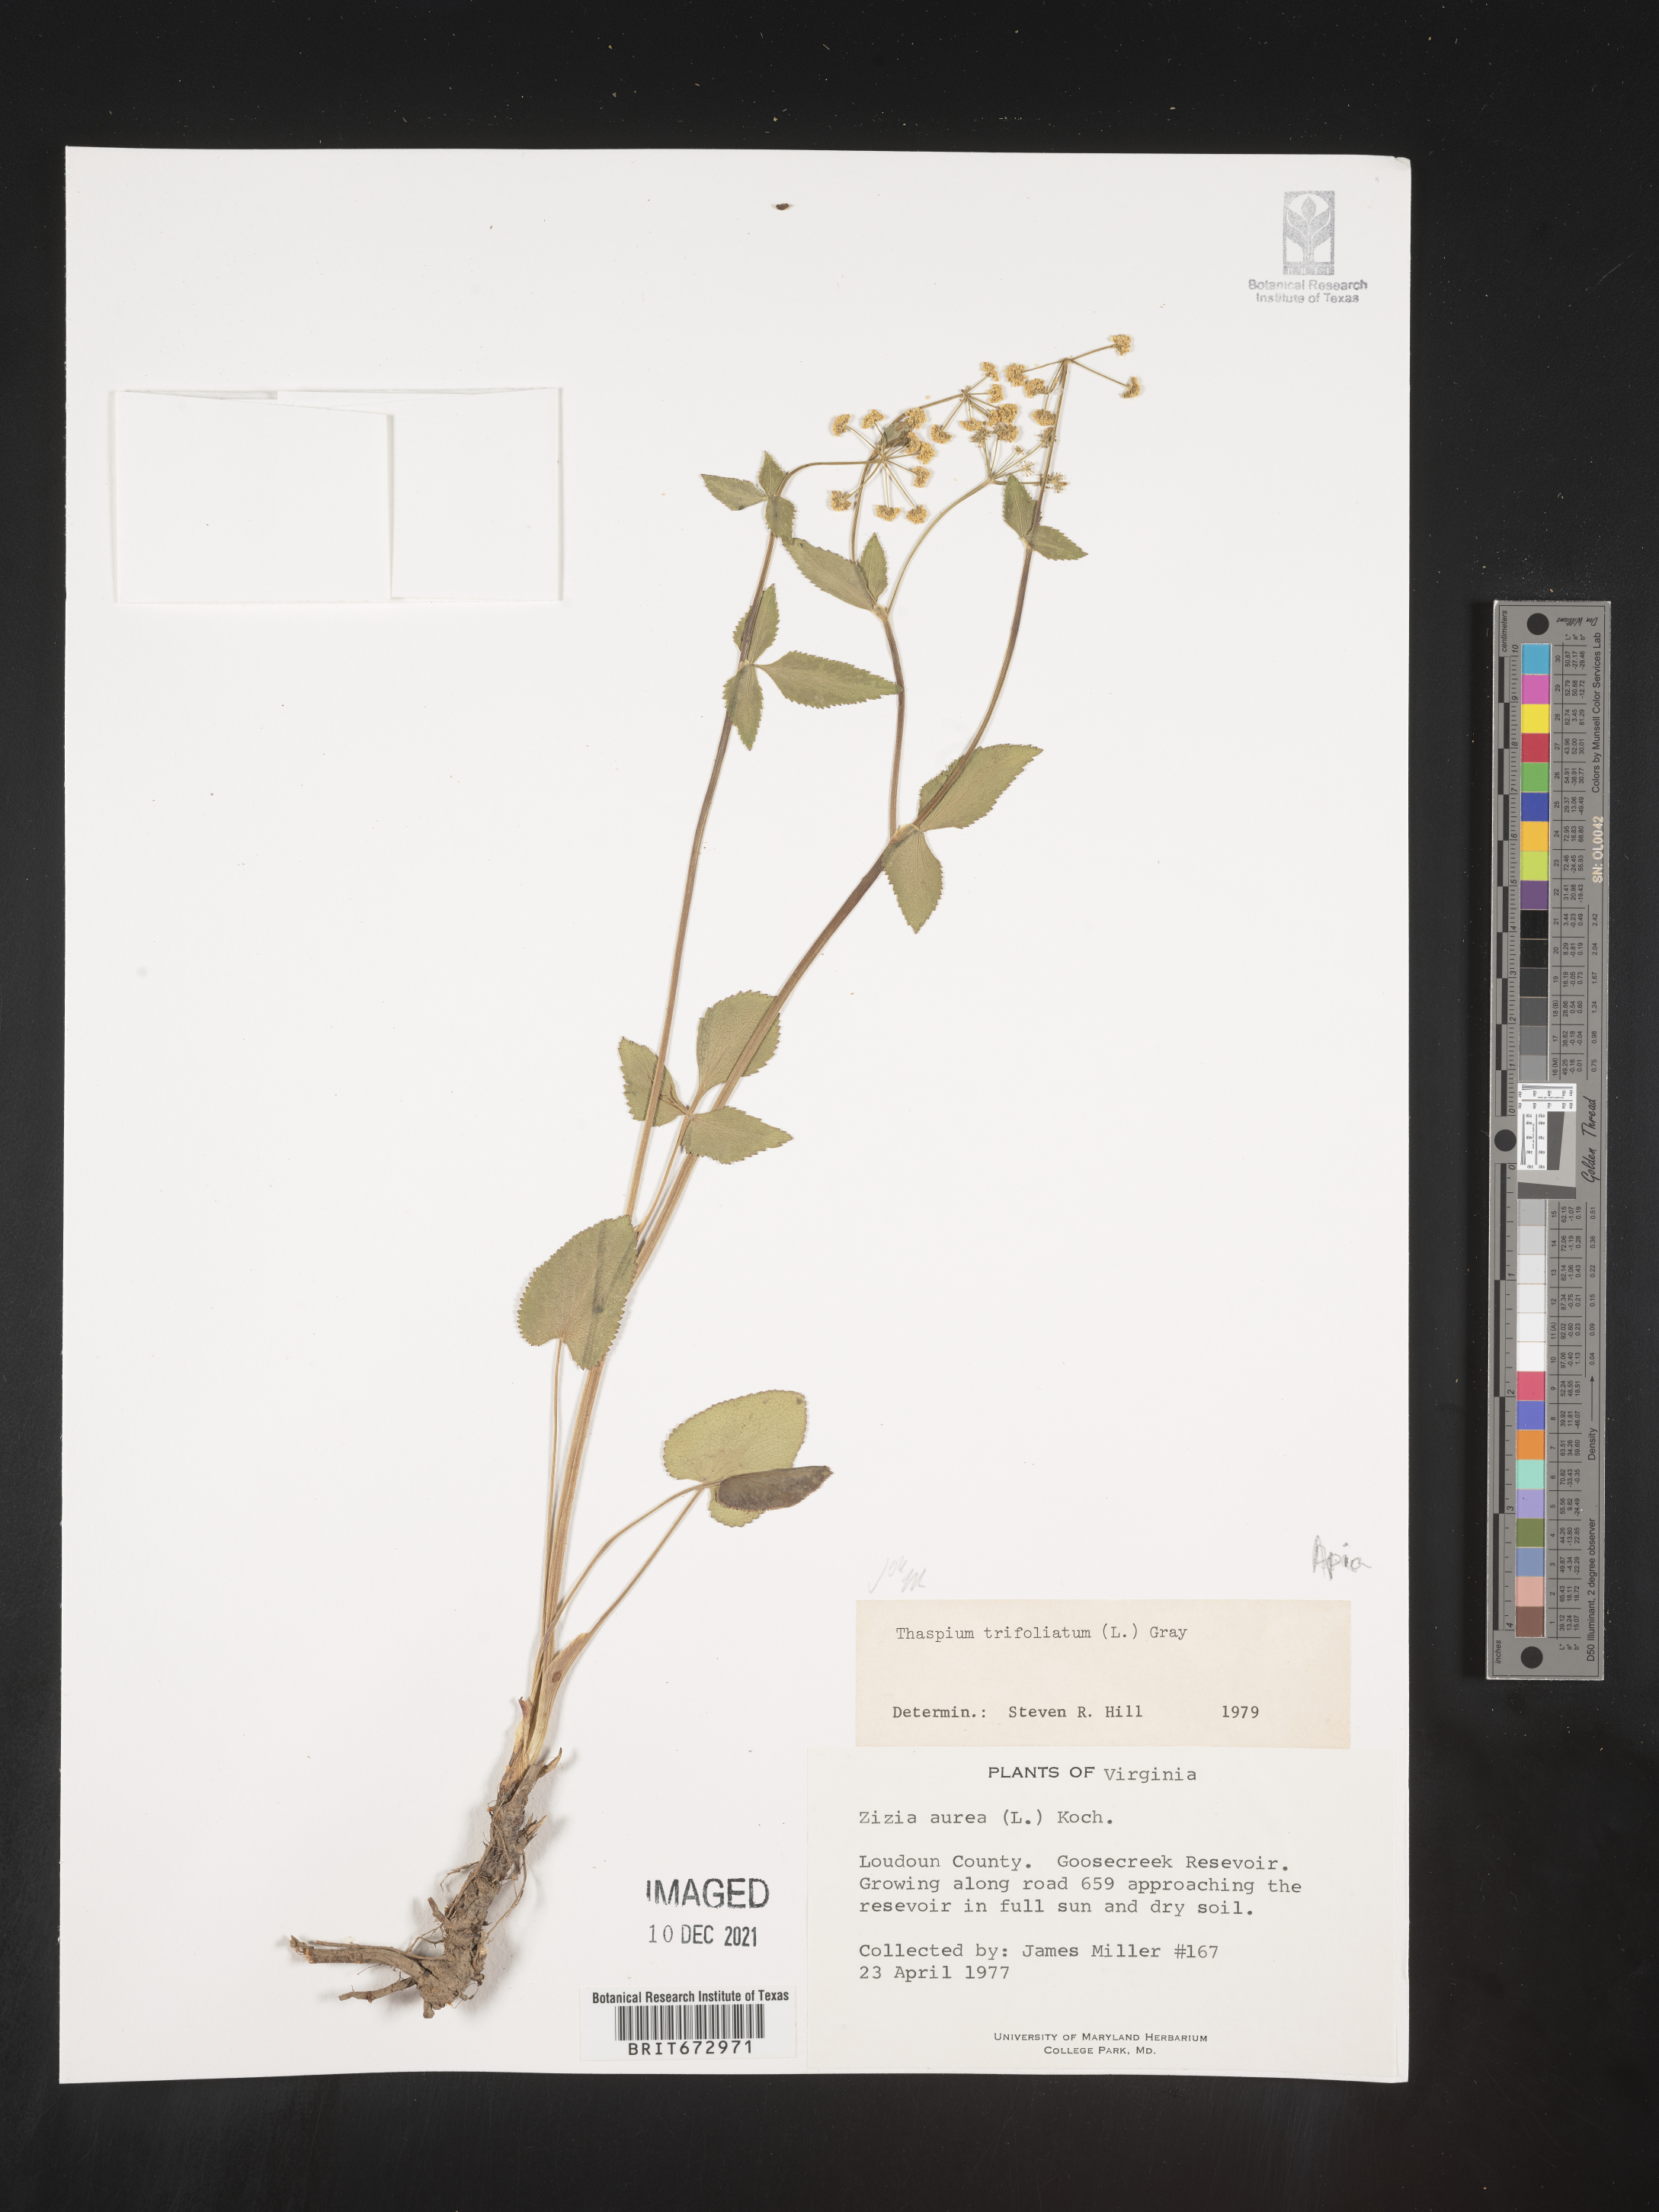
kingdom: Plantae
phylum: Tracheophyta
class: Magnoliopsida
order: Apiales
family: Apiaceae
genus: Thaspium
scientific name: Thaspium
